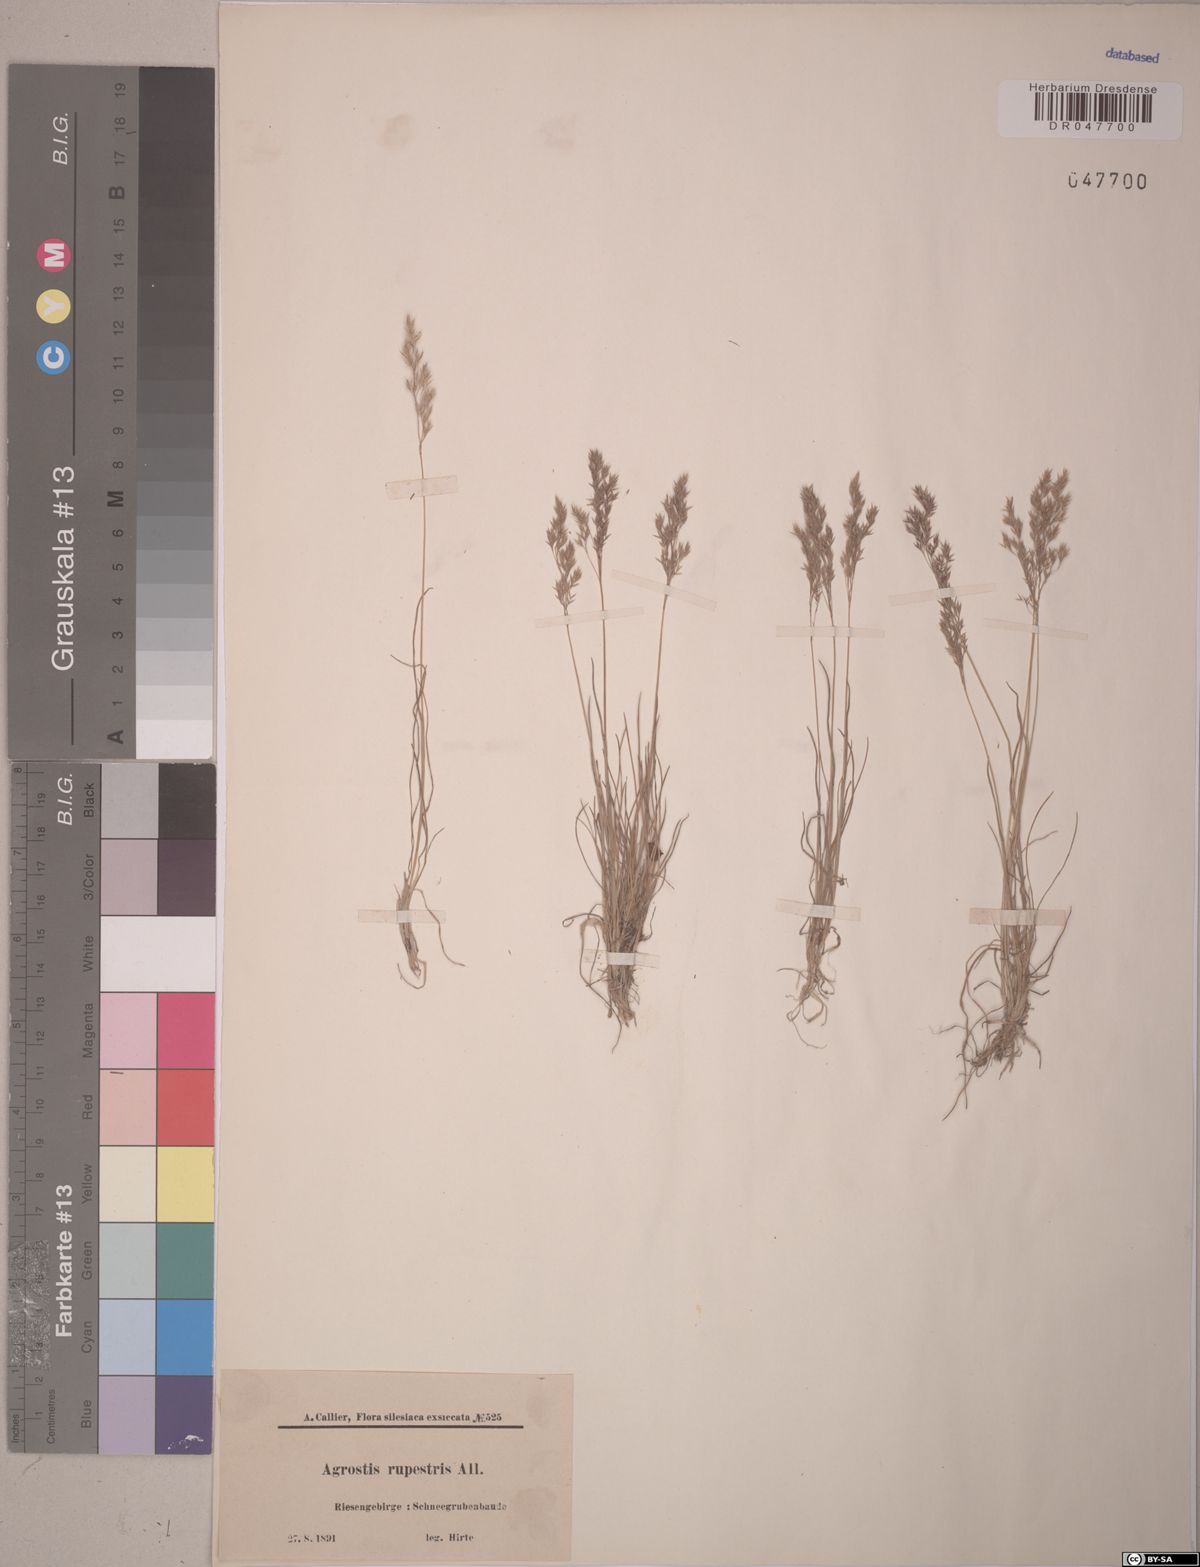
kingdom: Plantae
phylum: Tracheophyta
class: Liliopsida
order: Poales
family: Poaceae
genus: Agrostis
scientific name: Agrostis rupestris
